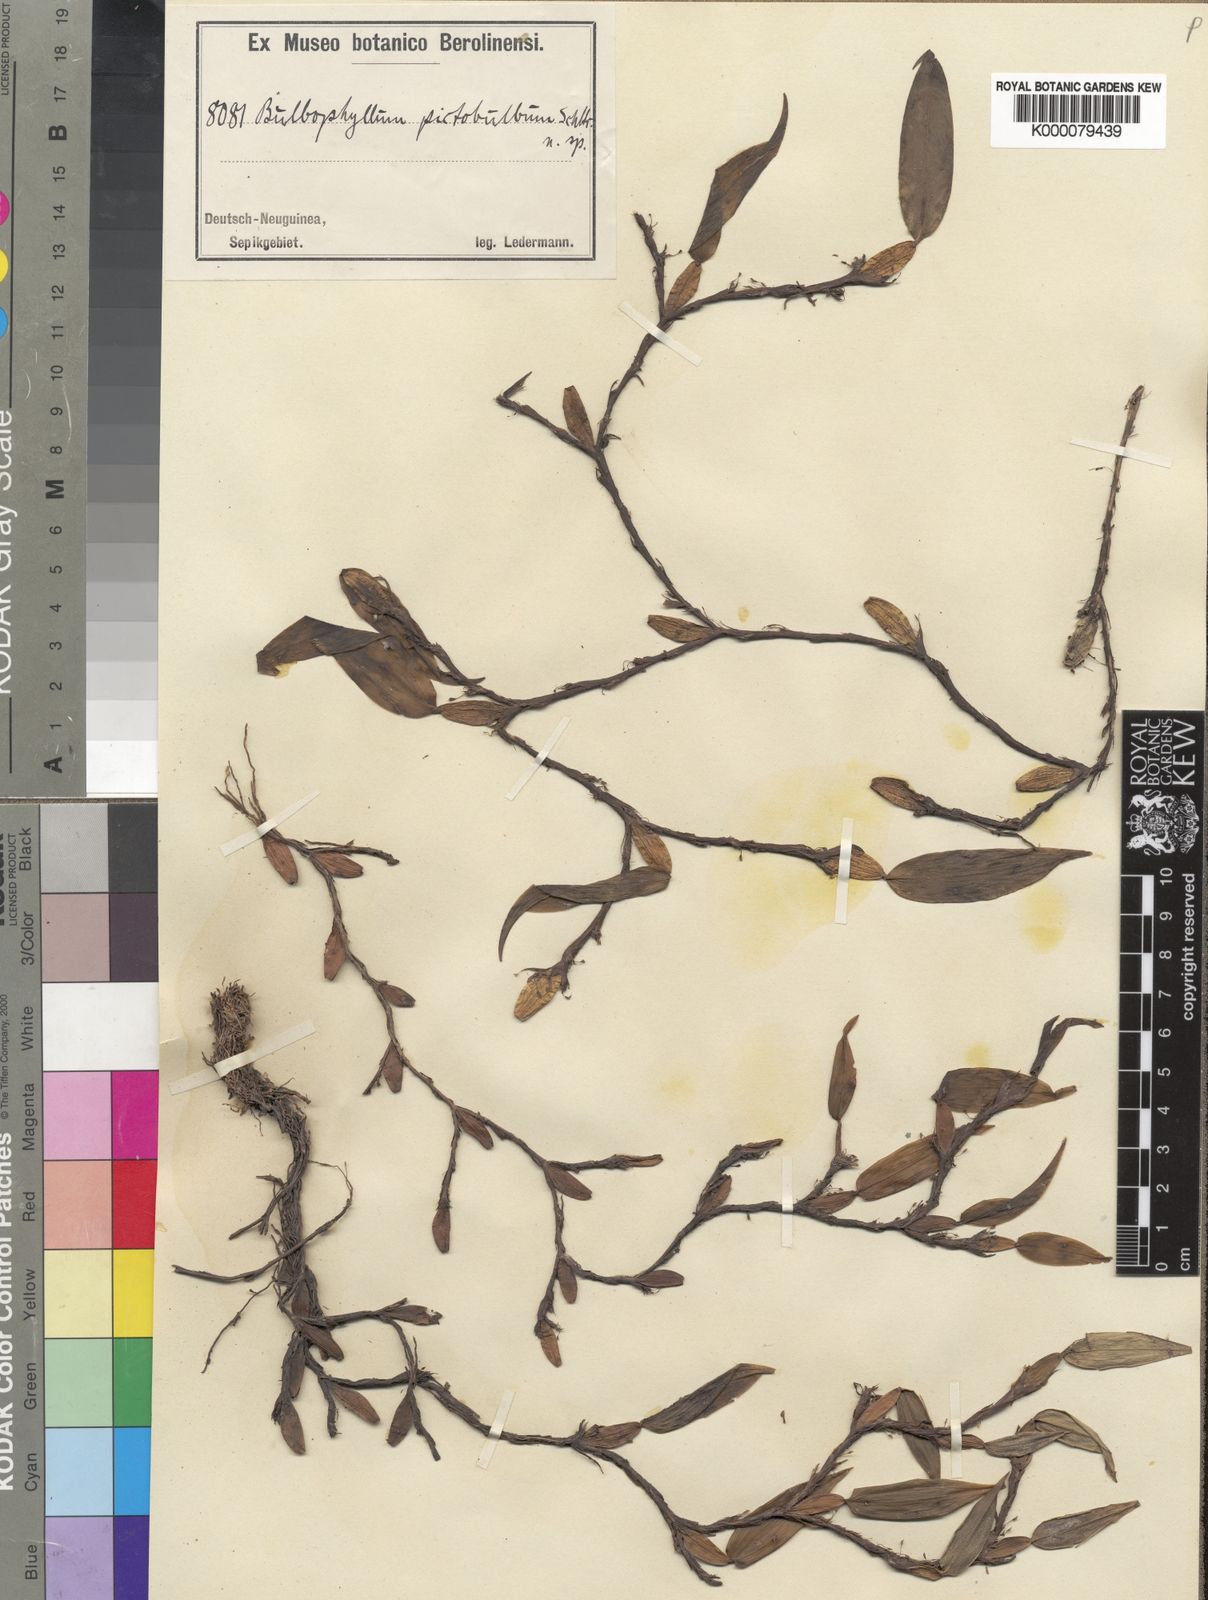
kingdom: Plantae
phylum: Tracheophyta
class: Liliopsida
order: Asparagales
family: Orchidaceae
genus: Bulbophyllum
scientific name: Bulbophyllum piestobulbon
